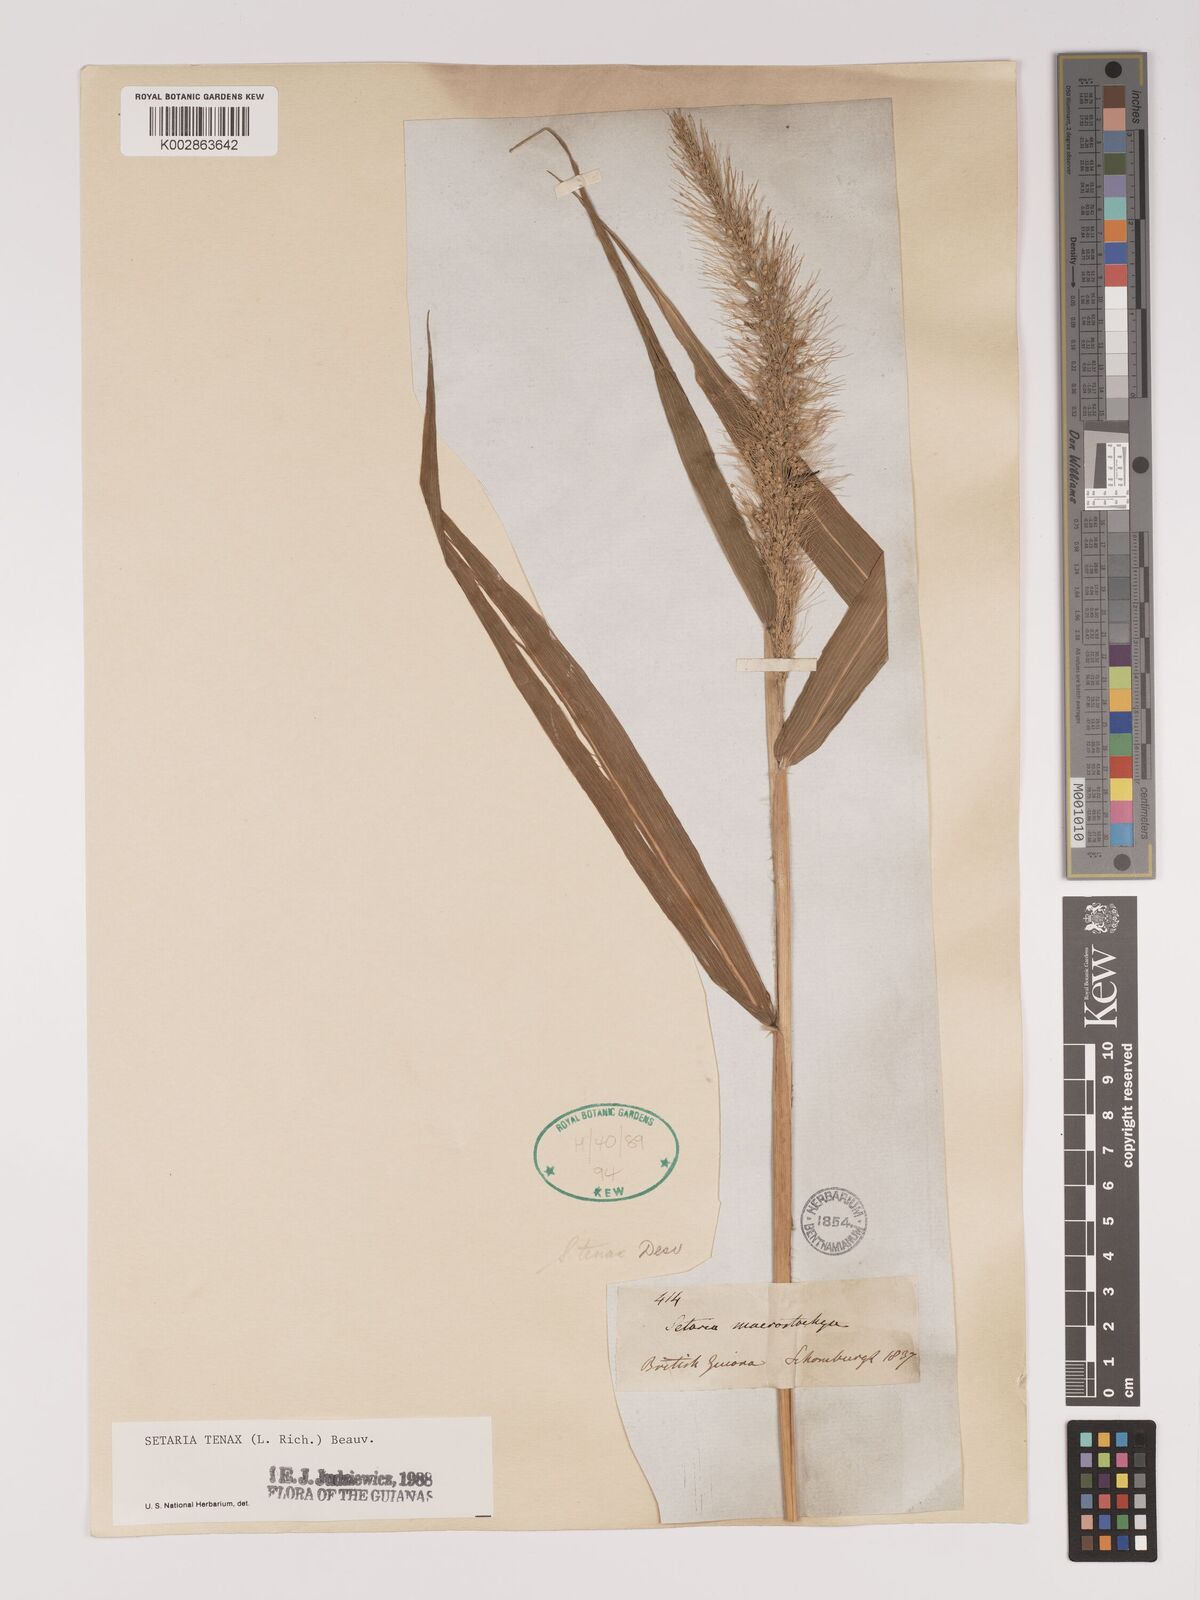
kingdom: Plantae
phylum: Tracheophyta
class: Liliopsida
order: Poales
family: Poaceae
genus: Setaria
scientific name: Setaria tenax
